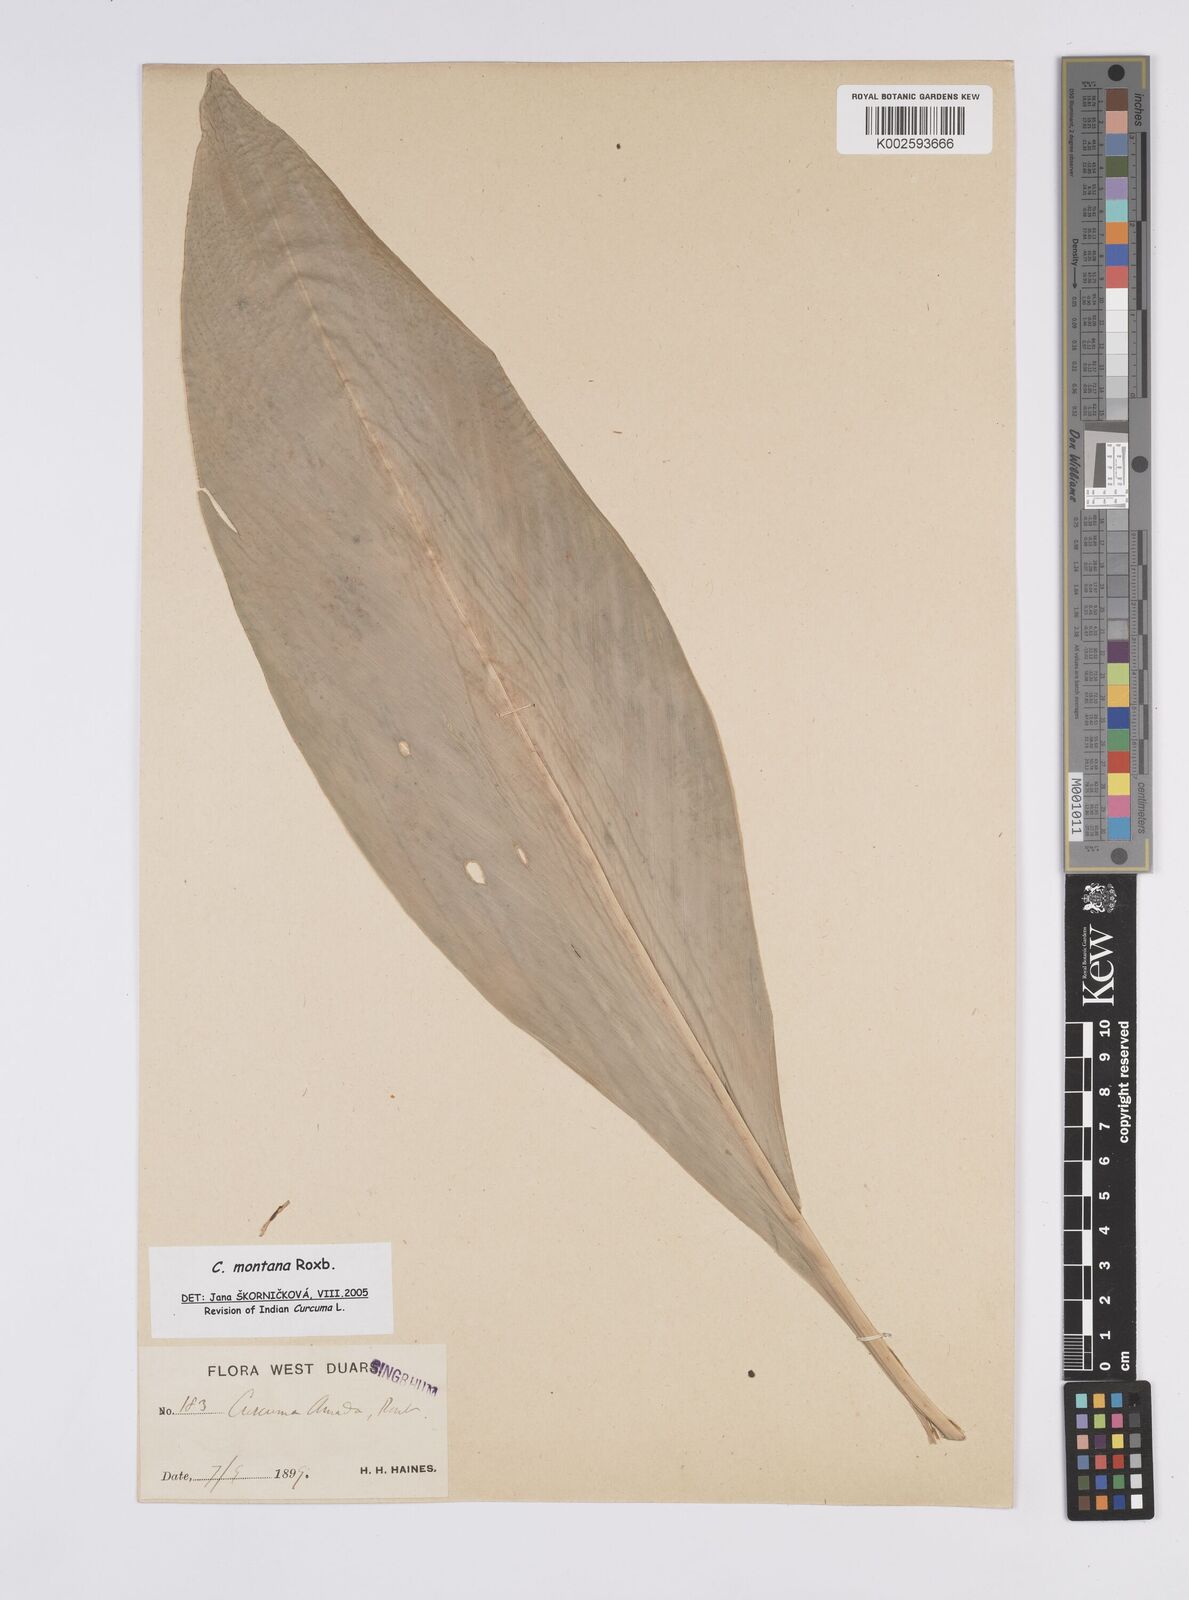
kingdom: Plantae
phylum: Tracheophyta
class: Liliopsida
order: Zingiberales
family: Zingiberaceae
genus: Curcuma
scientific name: Curcuma montana
